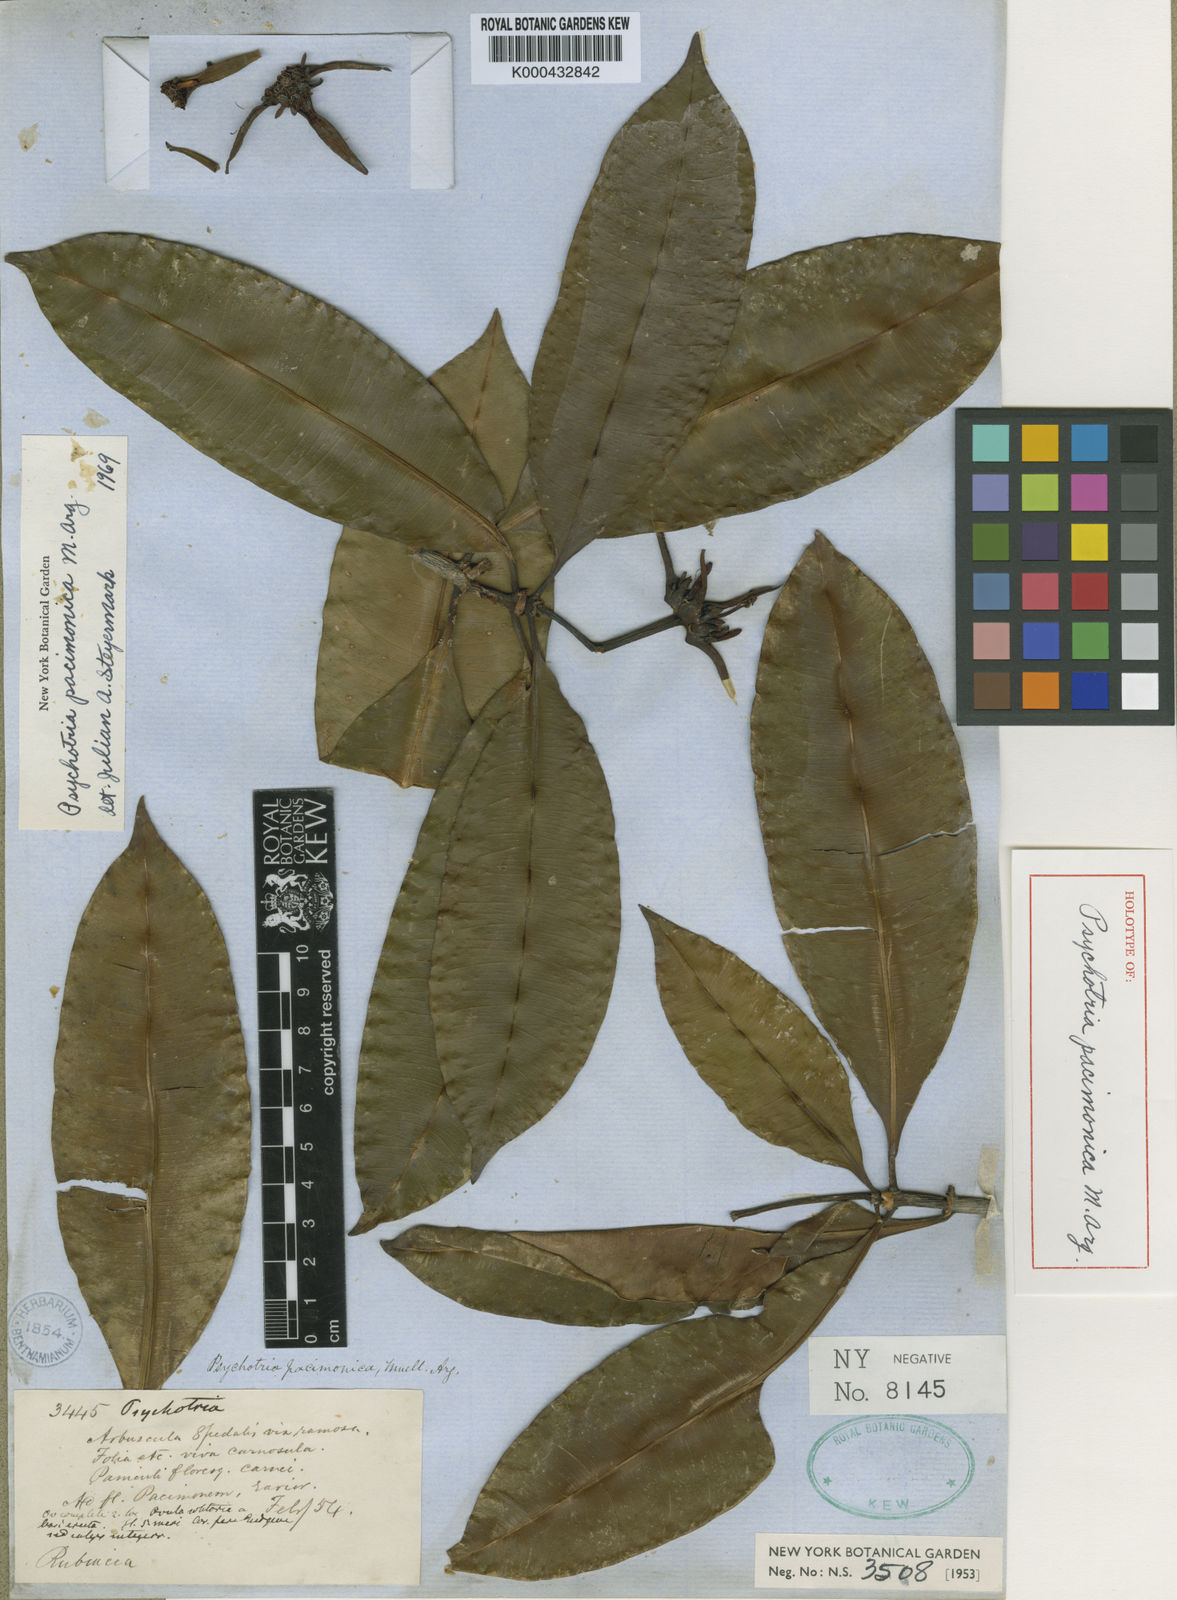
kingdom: Plantae
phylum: Tracheophyta
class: Magnoliopsida
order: Gentianales
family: Rubiaceae
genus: Carapichea
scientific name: Carapichea
